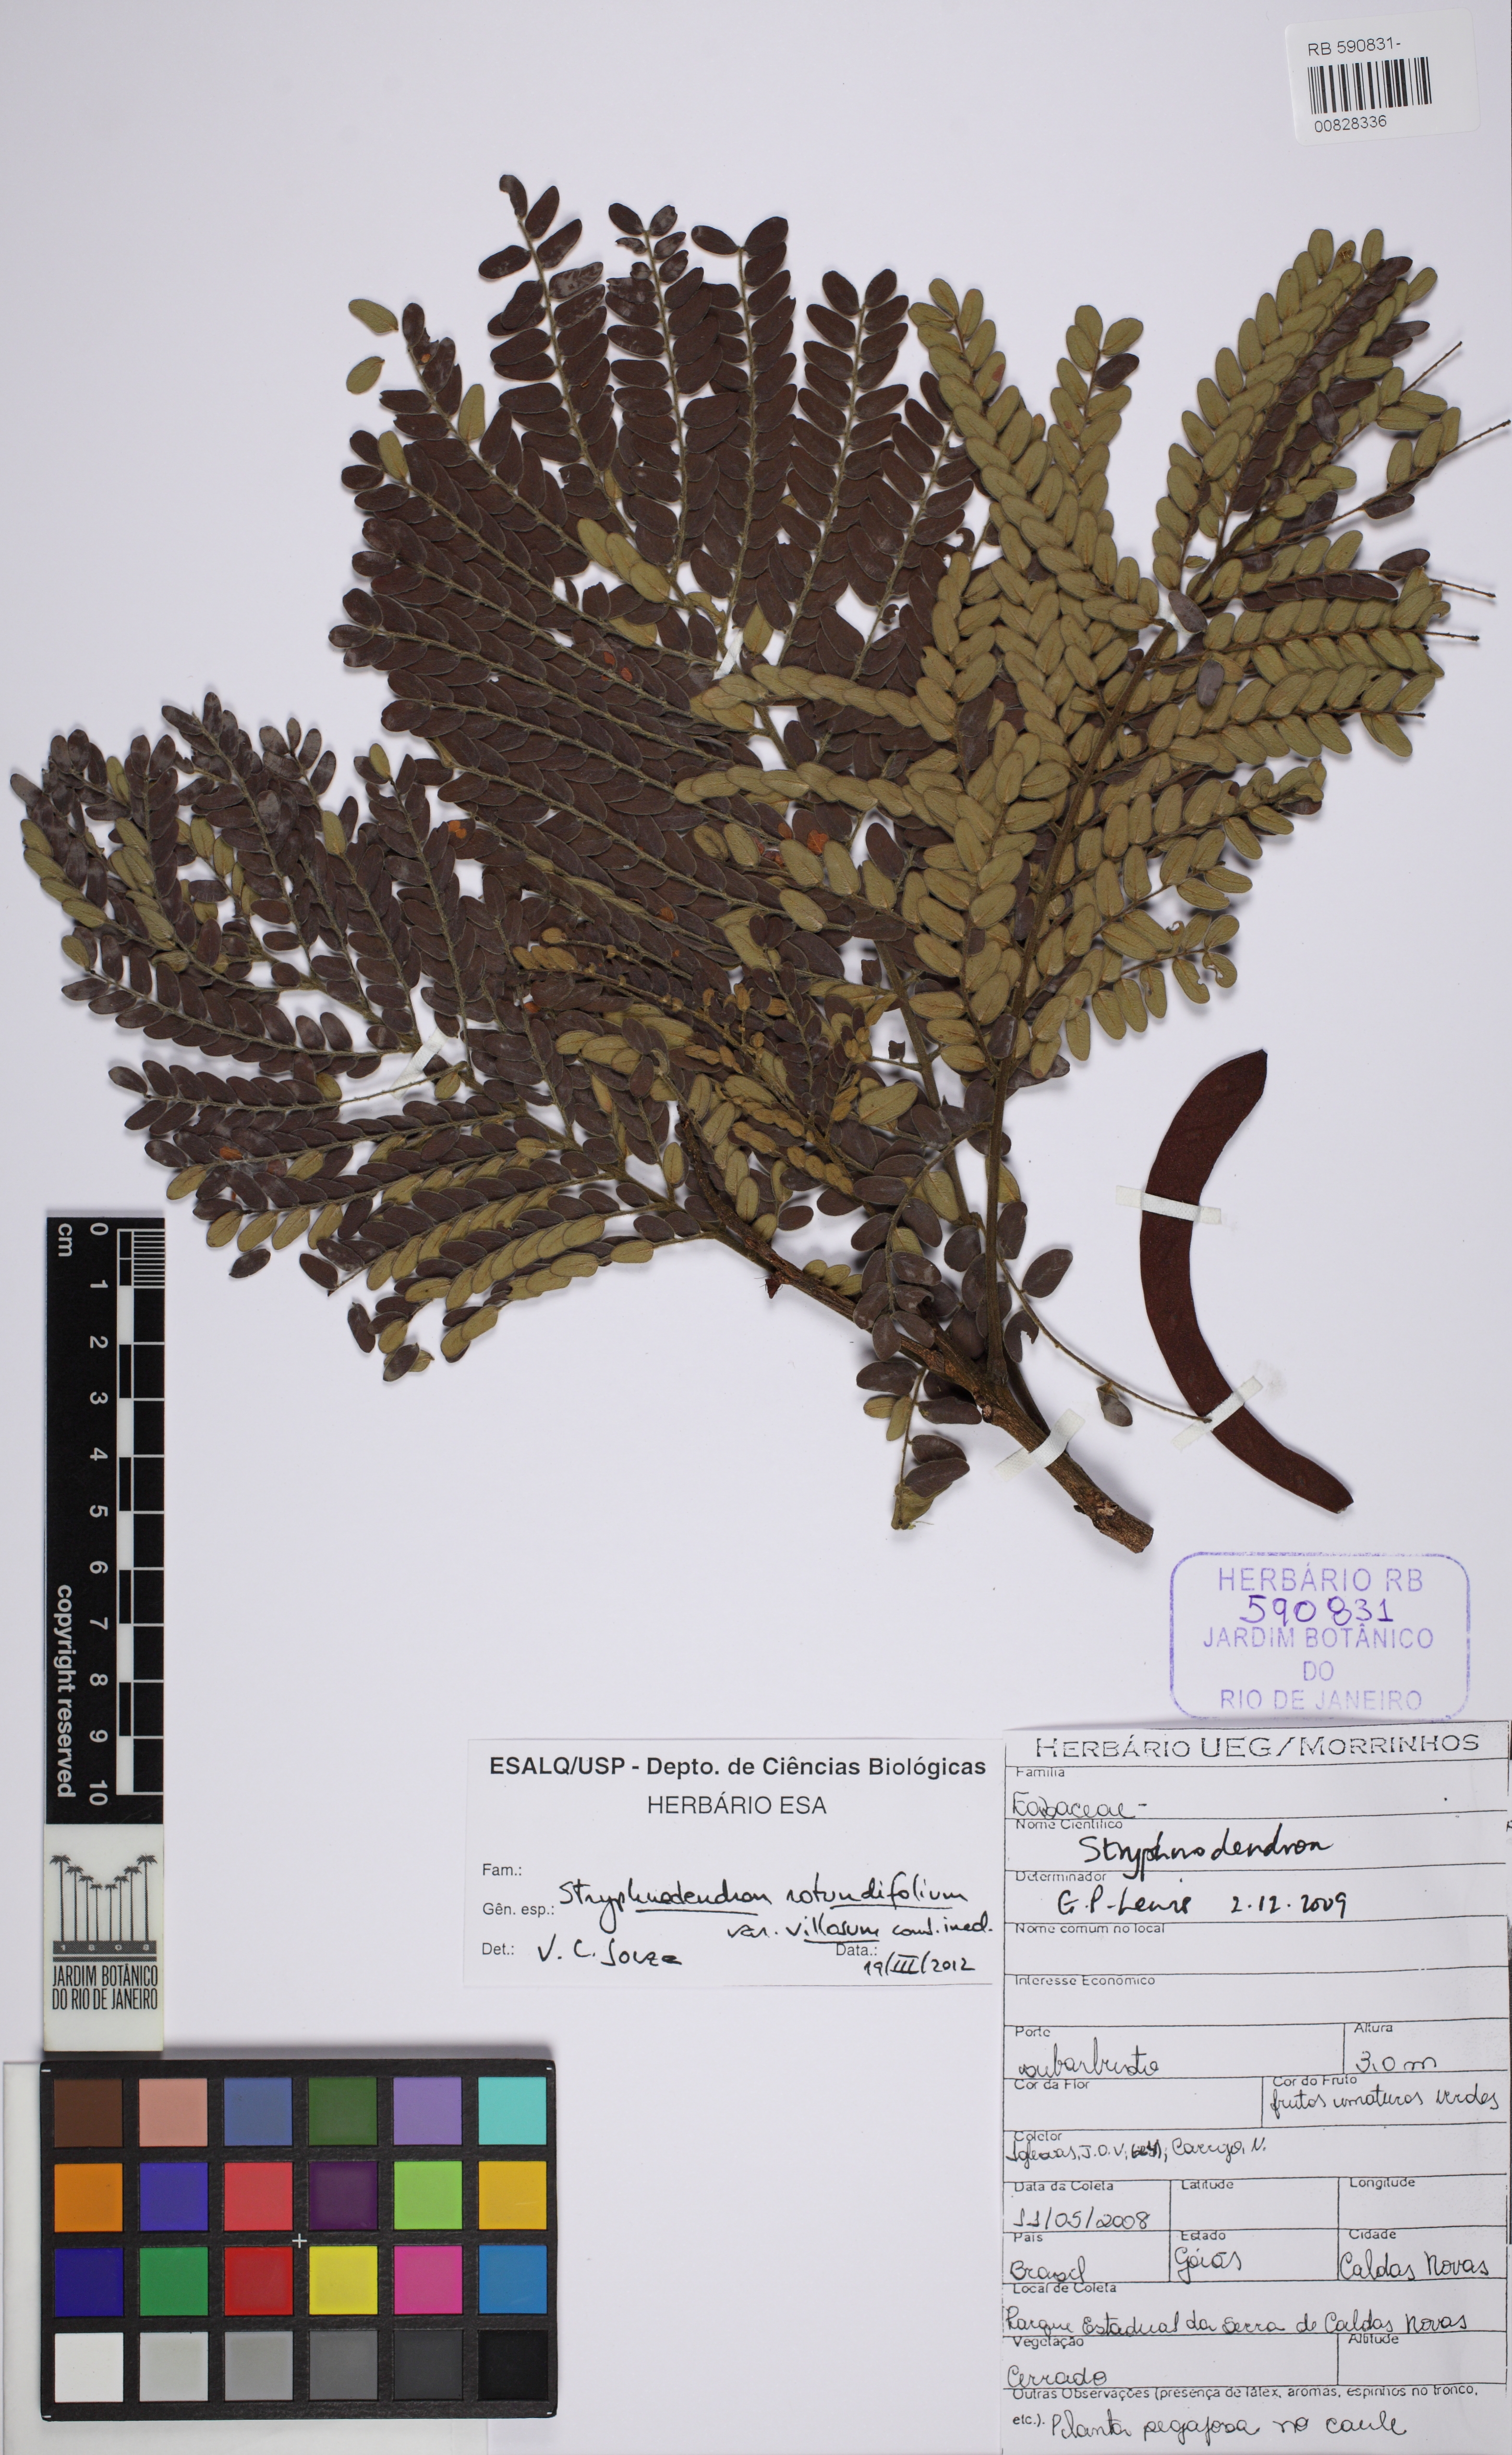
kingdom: Plantae
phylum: Tracheophyta
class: Magnoliopsida
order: Fabales
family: Fabaceae
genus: Stryphnodendron
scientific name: Stryphnodendron polyphyllum
